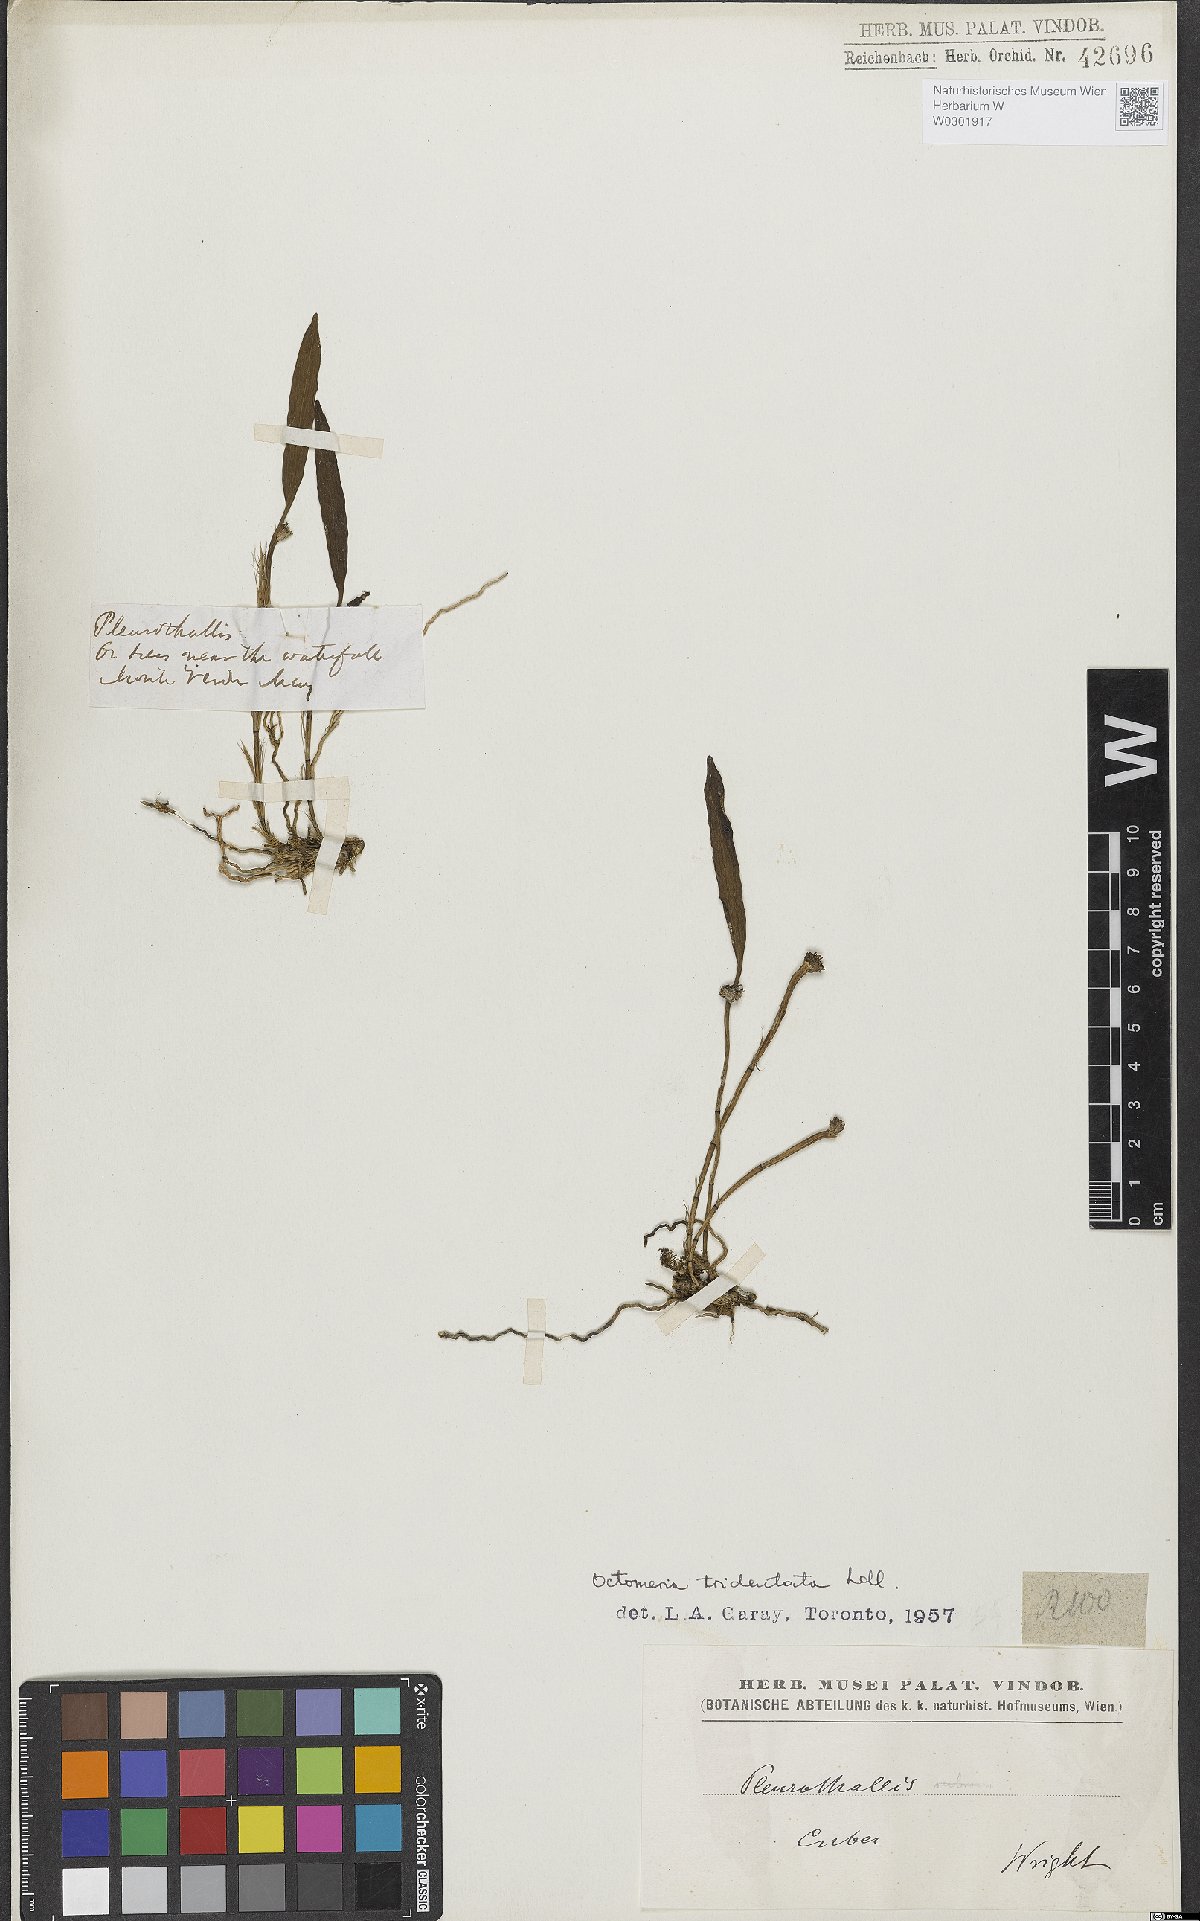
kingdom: Plantae
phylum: Tracheophyta
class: Liliopsida
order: Asparagales
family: Orchidaceae
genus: Octomeria
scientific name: Octomeria tridentata
